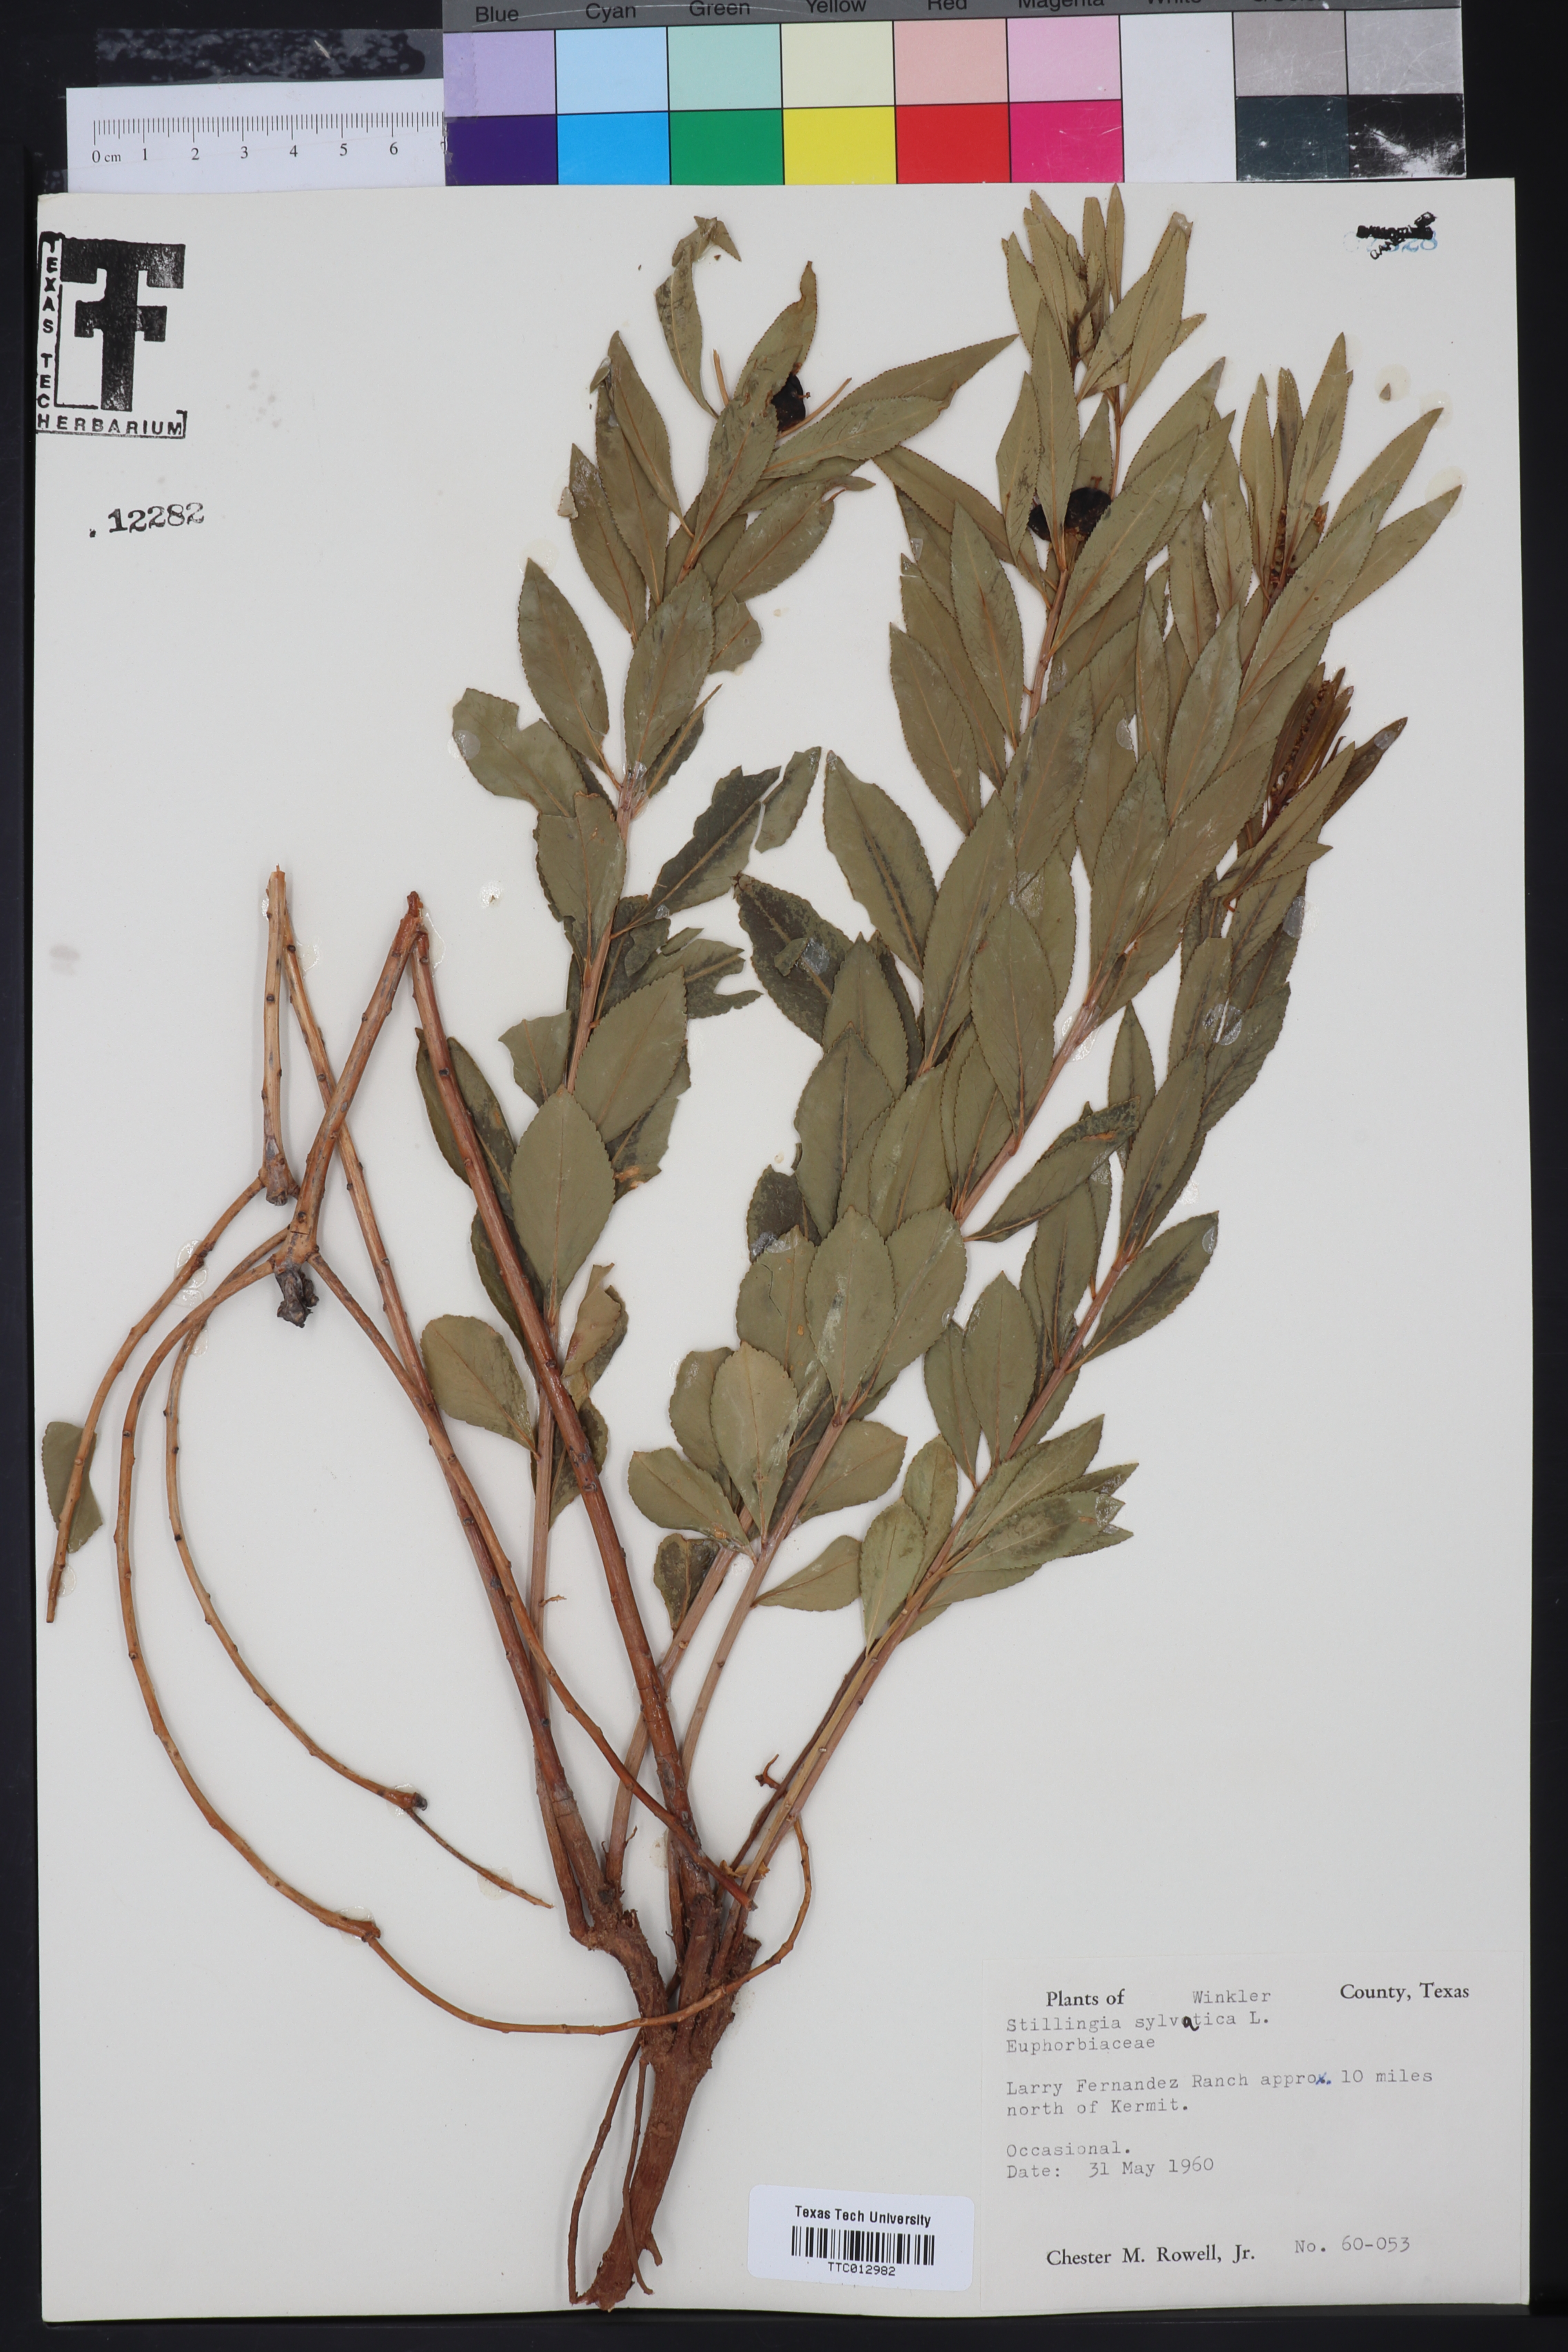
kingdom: Plantae
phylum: Tracheophyta
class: Magnoliopsida
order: Malpighiales
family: Euphorbiaceae
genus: Stillingia
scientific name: Stillingia sylvatica
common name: Queen's-delight
